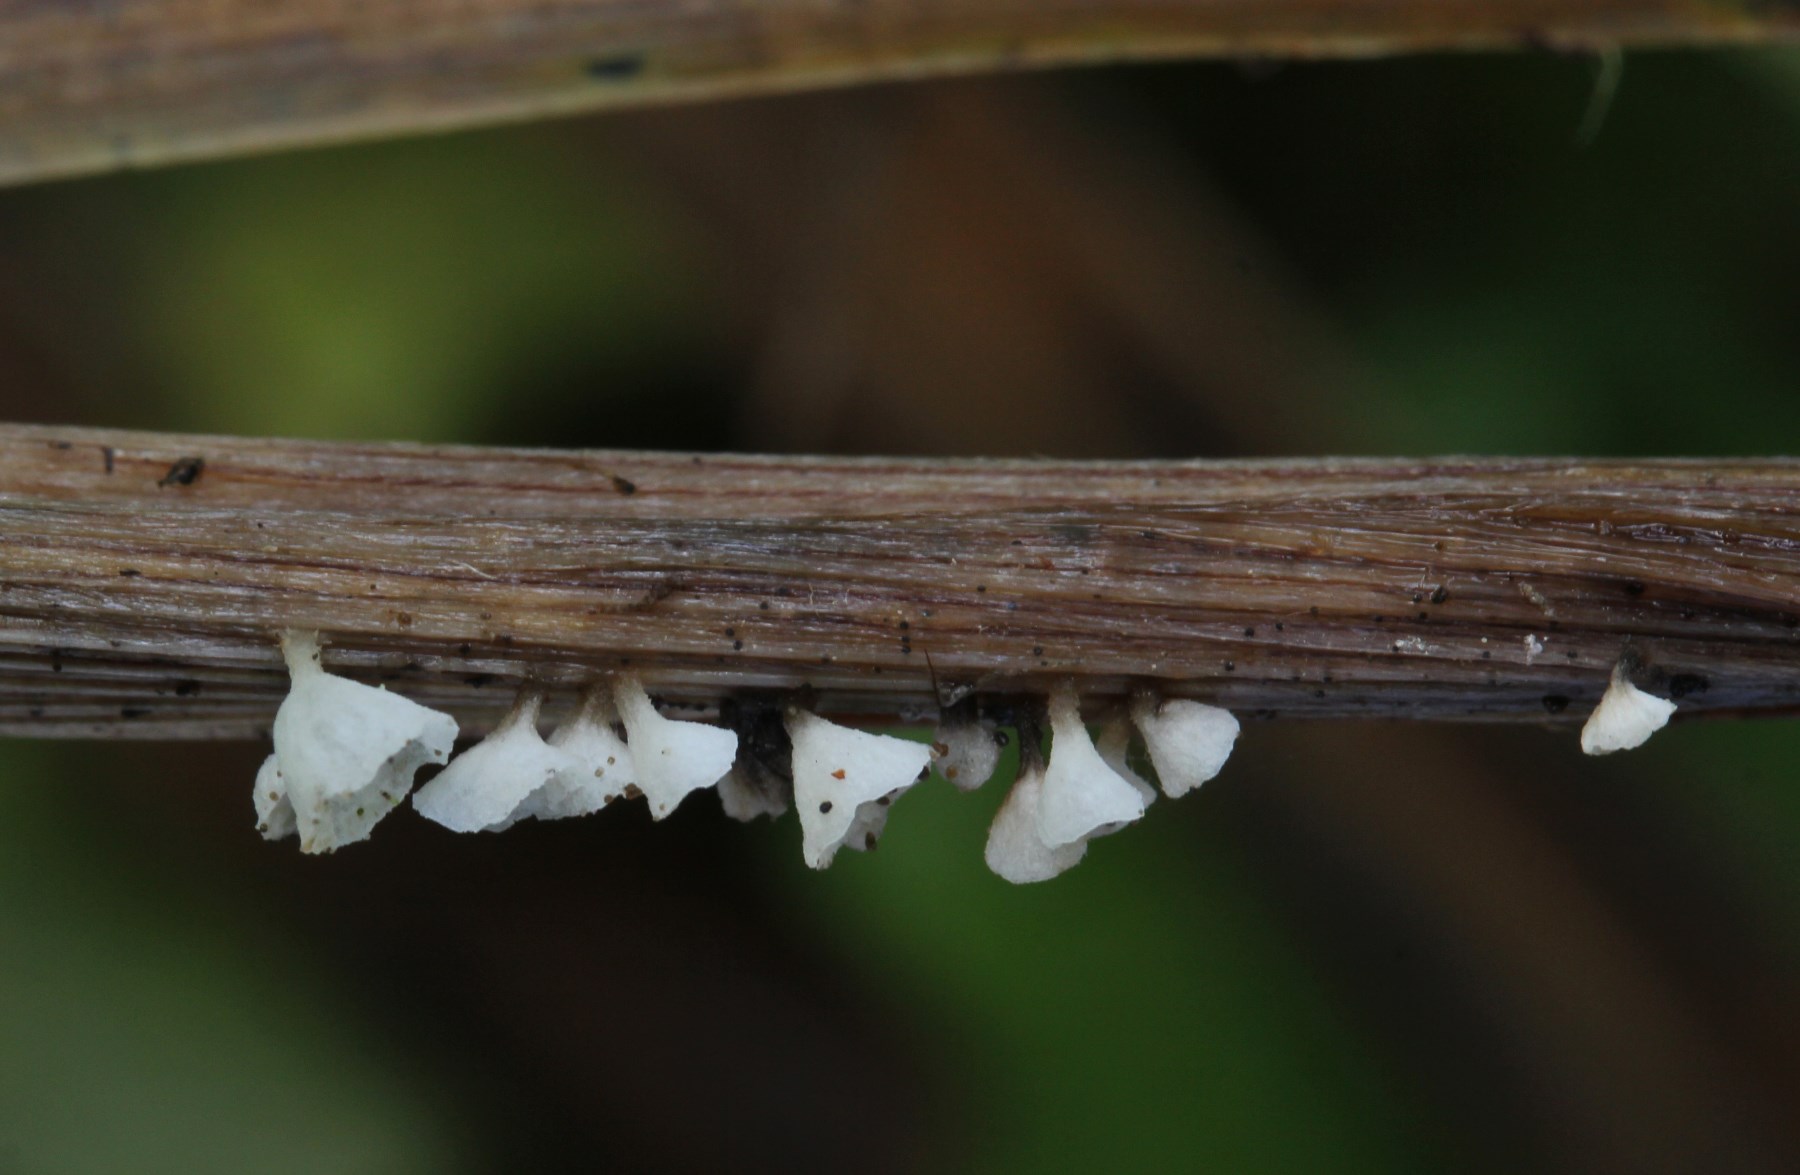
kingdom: Fungi
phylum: Basidiomycota
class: Agaricomycetes
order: Agaricales
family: Marasmiaceae
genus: Calyptella
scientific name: Calyptella capula
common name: hvidlig nældehue
